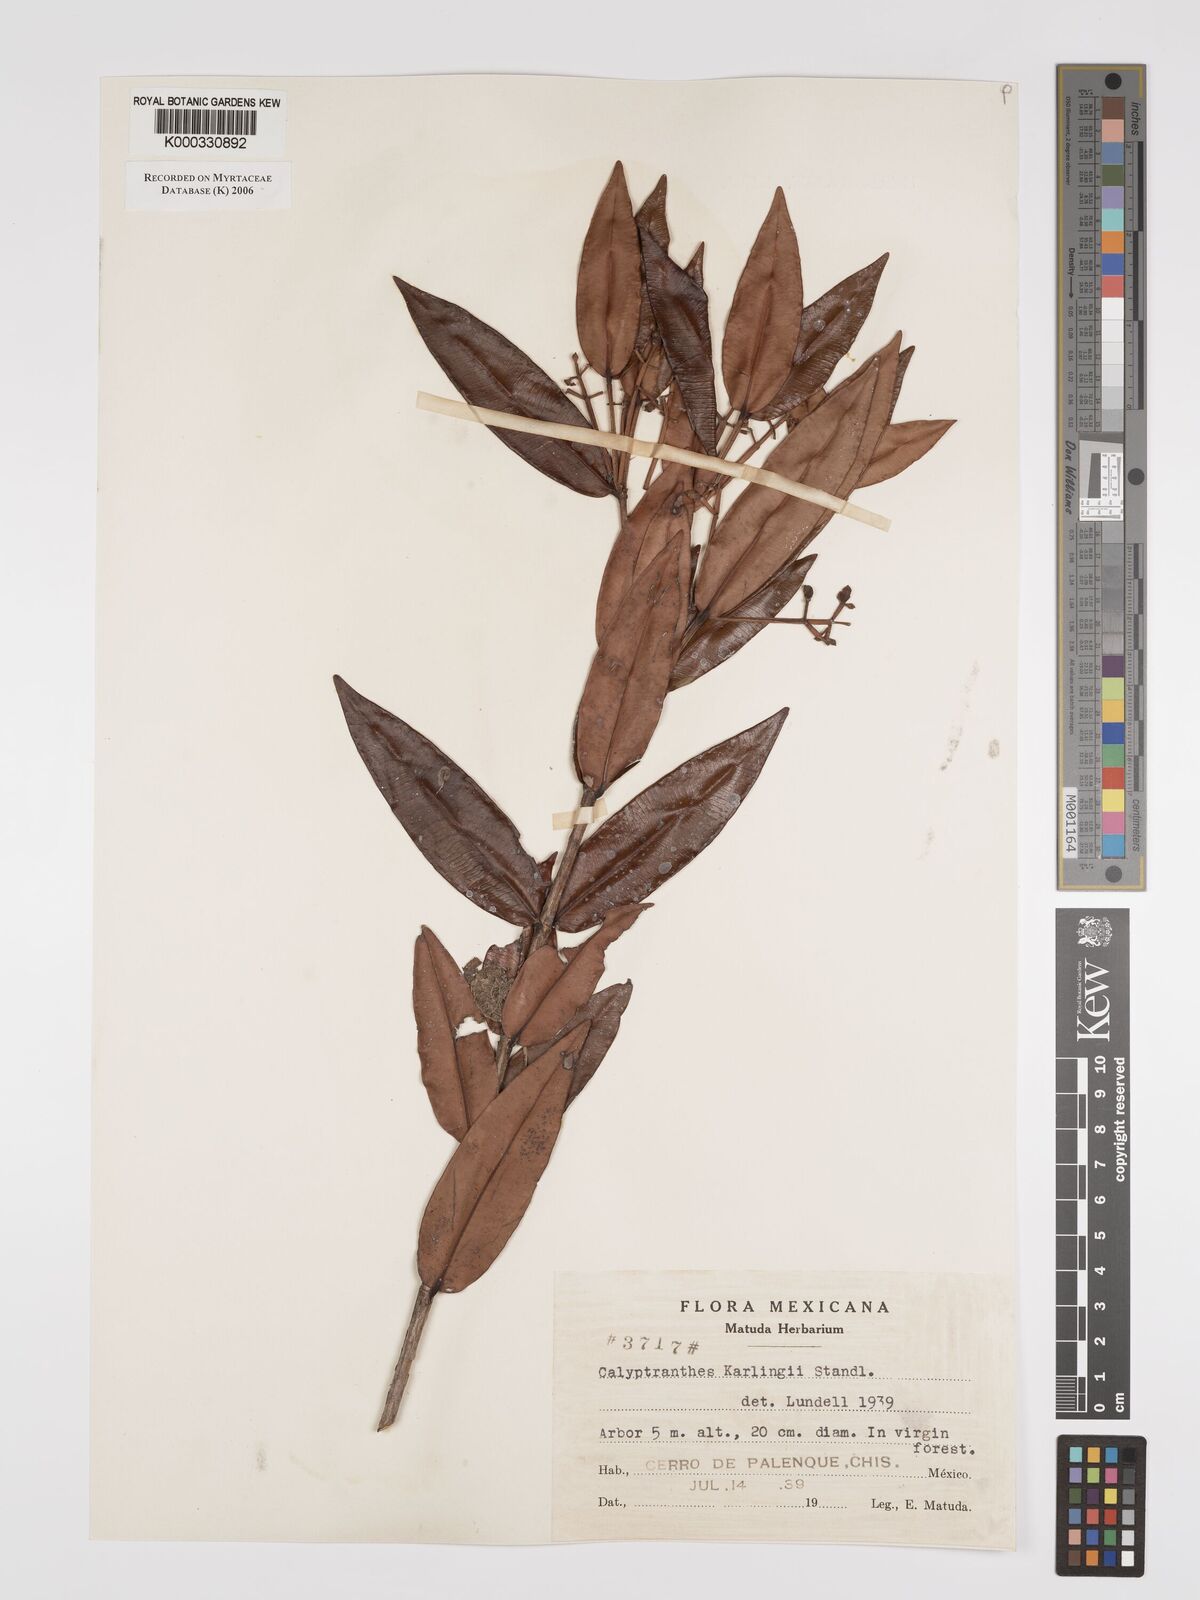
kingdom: Plantae
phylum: Tracheophyta
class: Magnoliopsida
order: Myrtales
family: Myrtaceae
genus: Myrcia
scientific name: Myrcia karlingii
